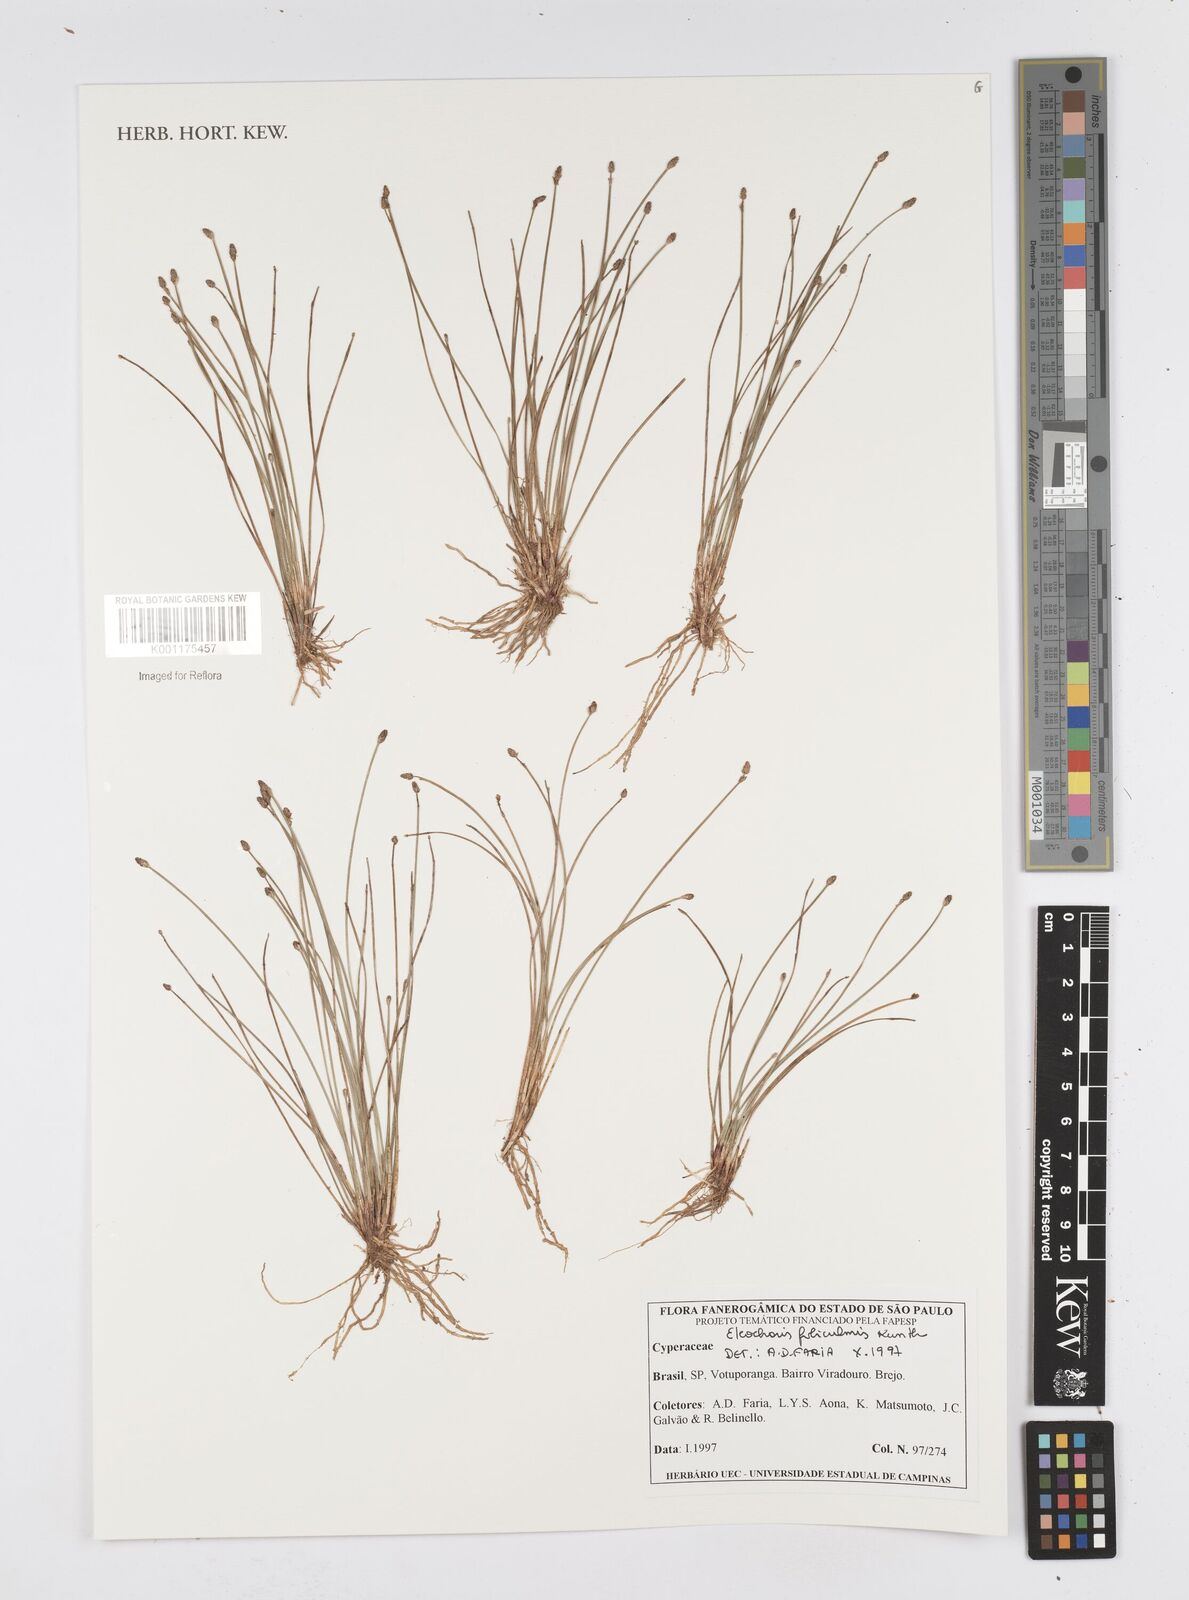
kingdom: Plantae
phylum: Tracheophyta
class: Liliopsida
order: Poales
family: Cyperaceae
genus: Eleocharis
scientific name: Eleocharis filiculmis
